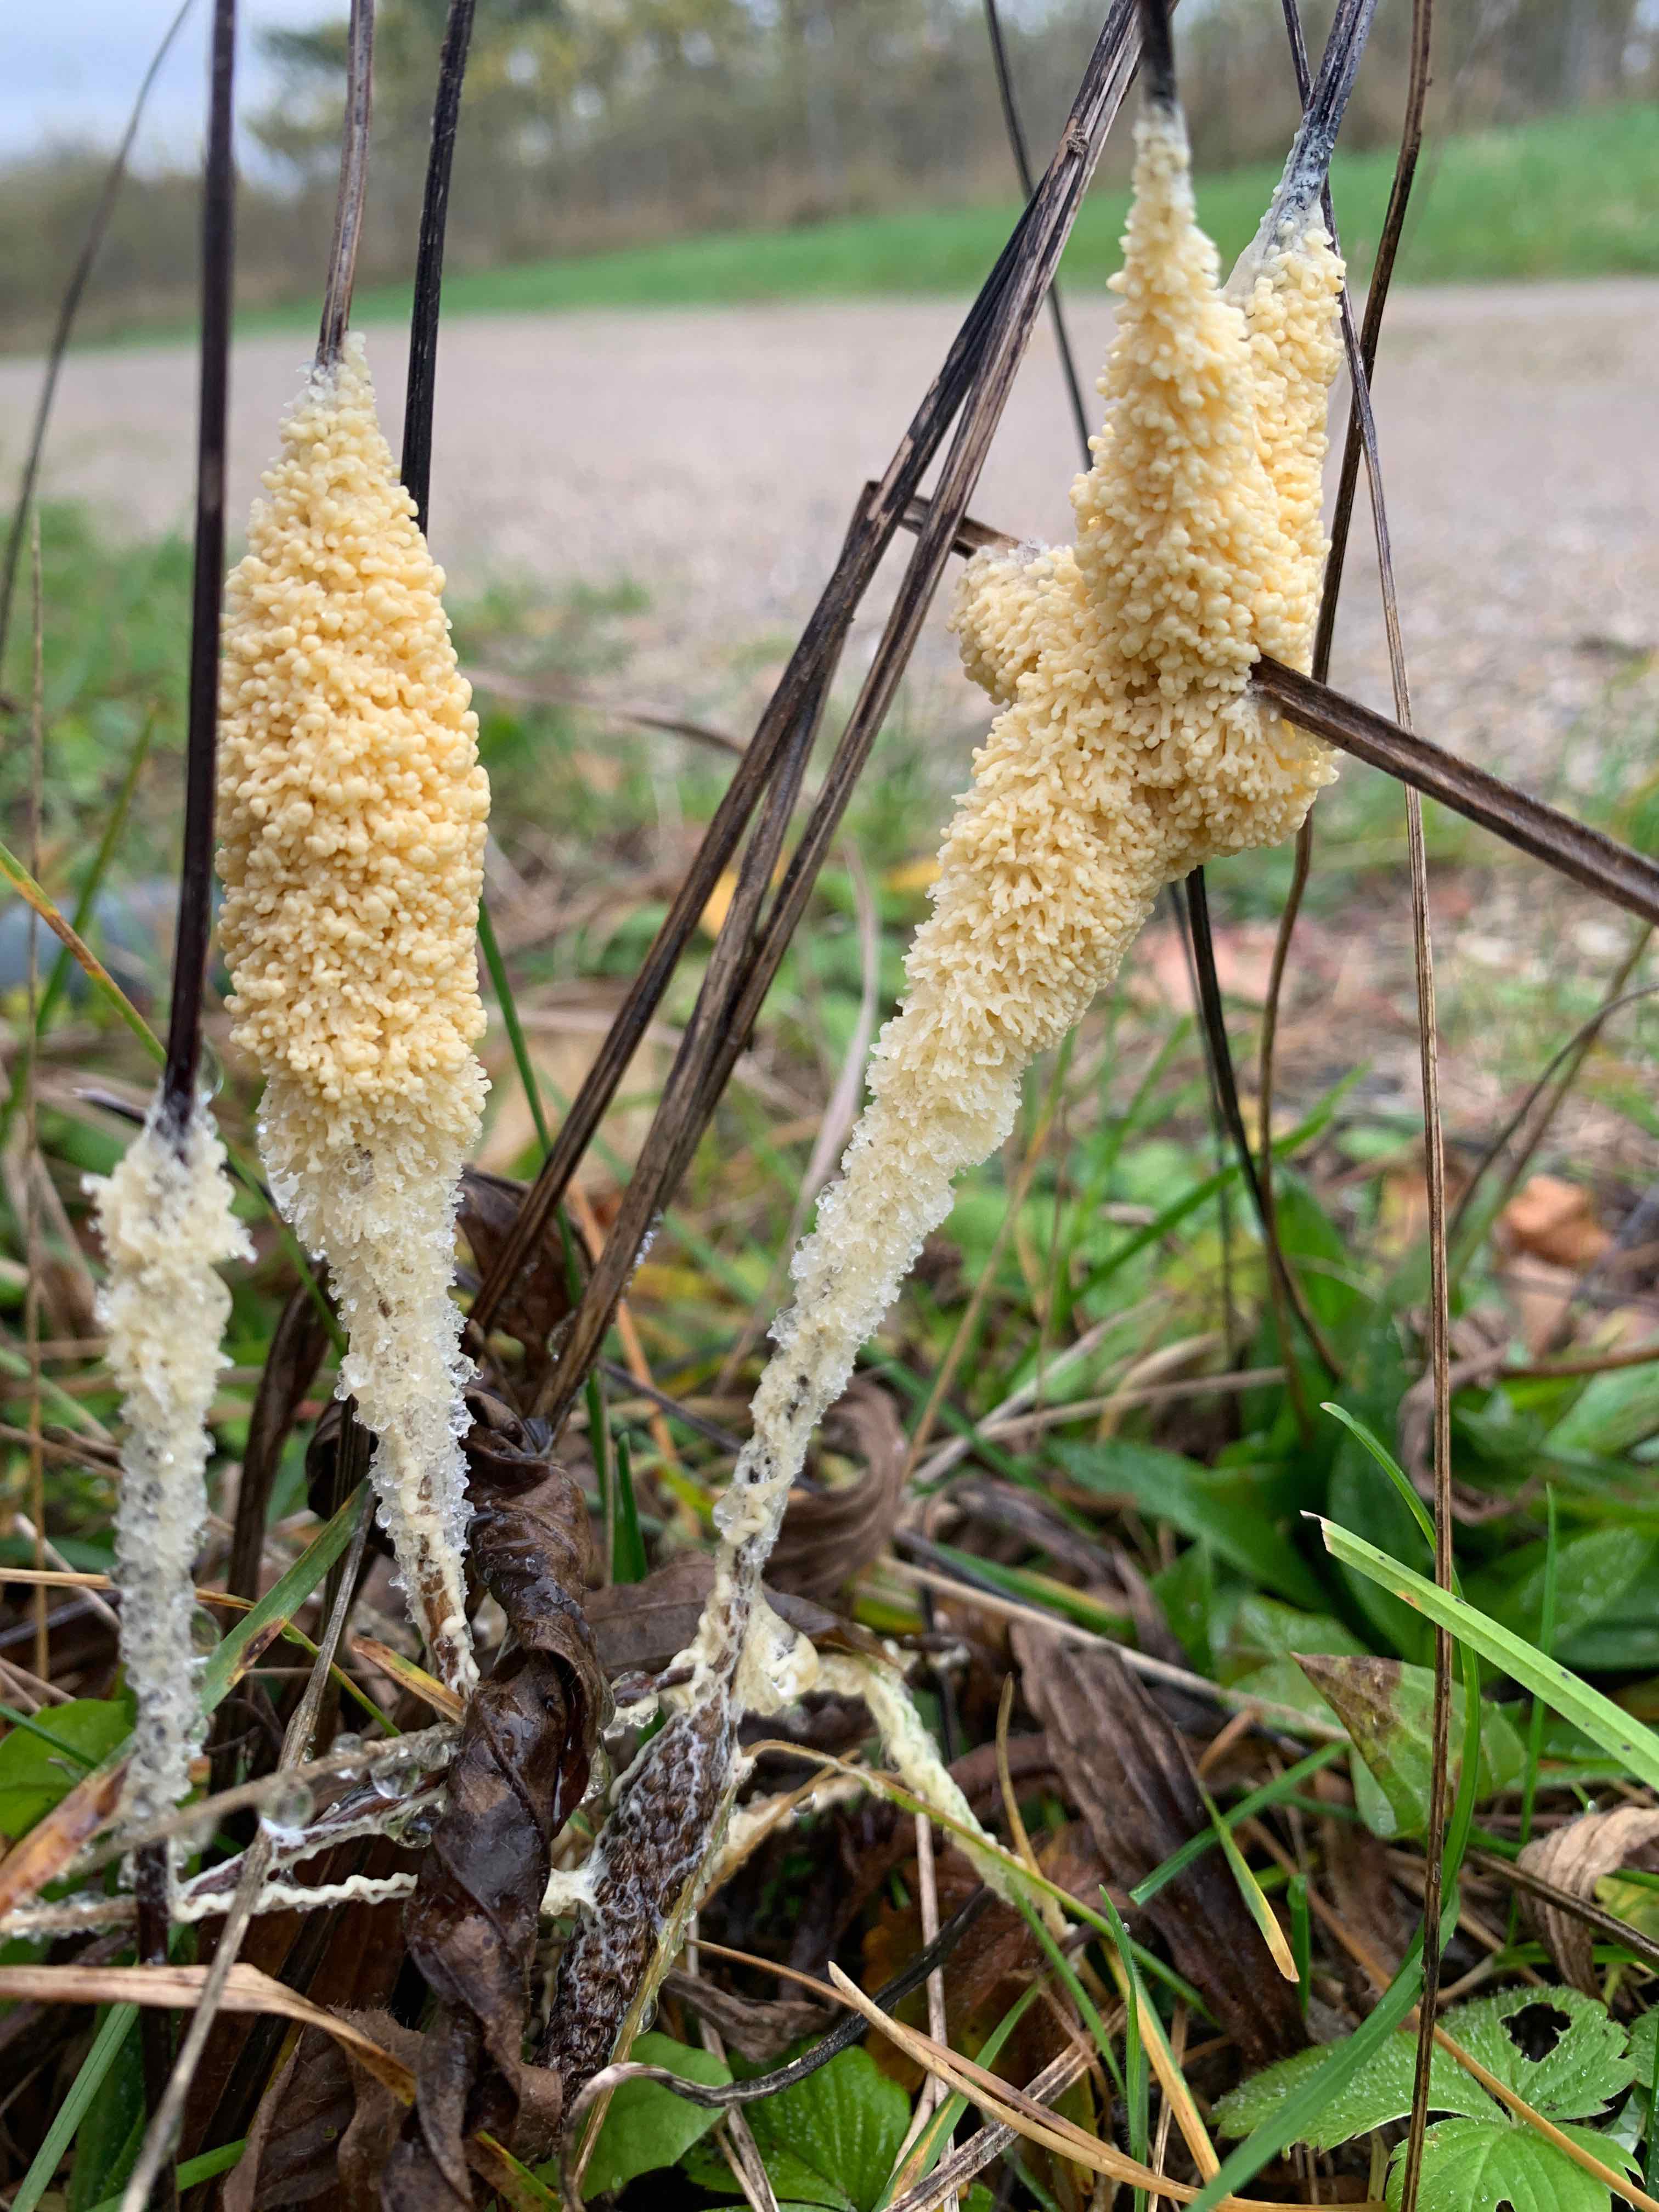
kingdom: Protozoa
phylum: Mycetozoa
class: Myxomycetes
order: Physarales
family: Physaraceae
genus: Didymium
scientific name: Didymium
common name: urteskum
